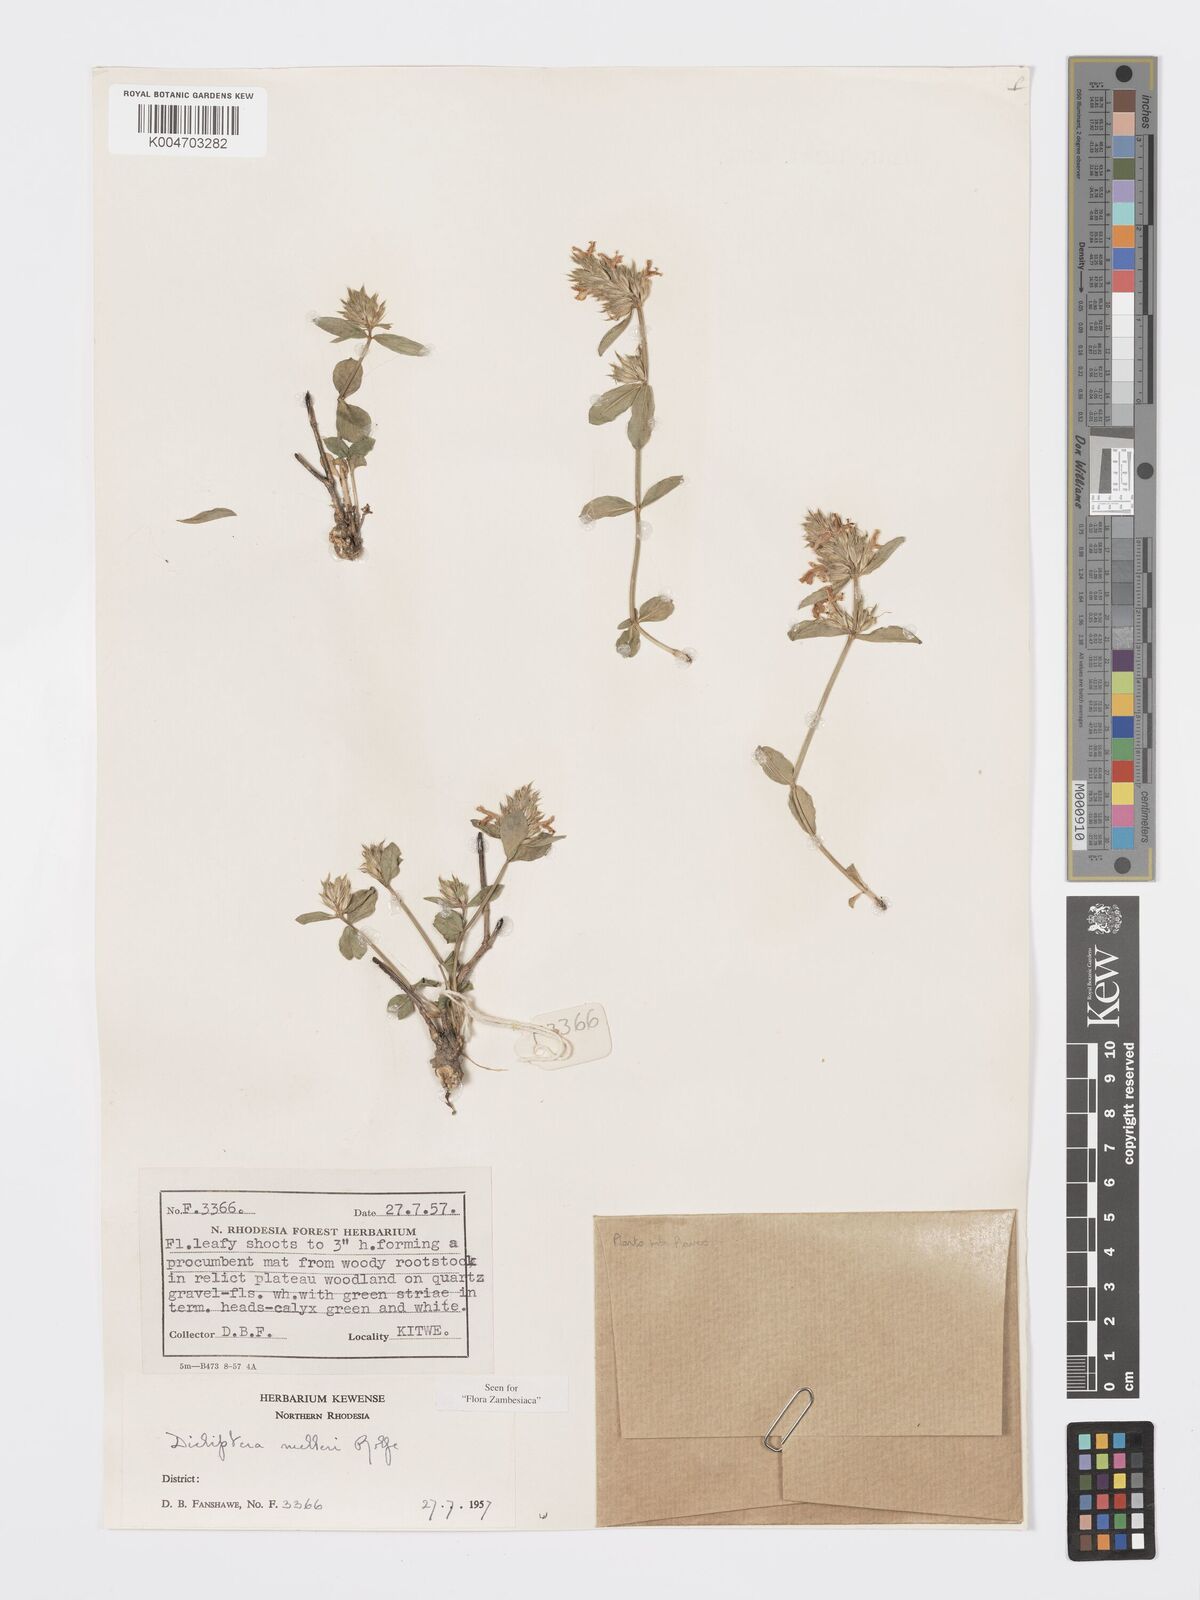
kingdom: Plantae
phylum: Tracheophyta
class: Magnoliopsida
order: Lamiales
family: Acanthaceae
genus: Dicliptera
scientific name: Dicliptera melleri
